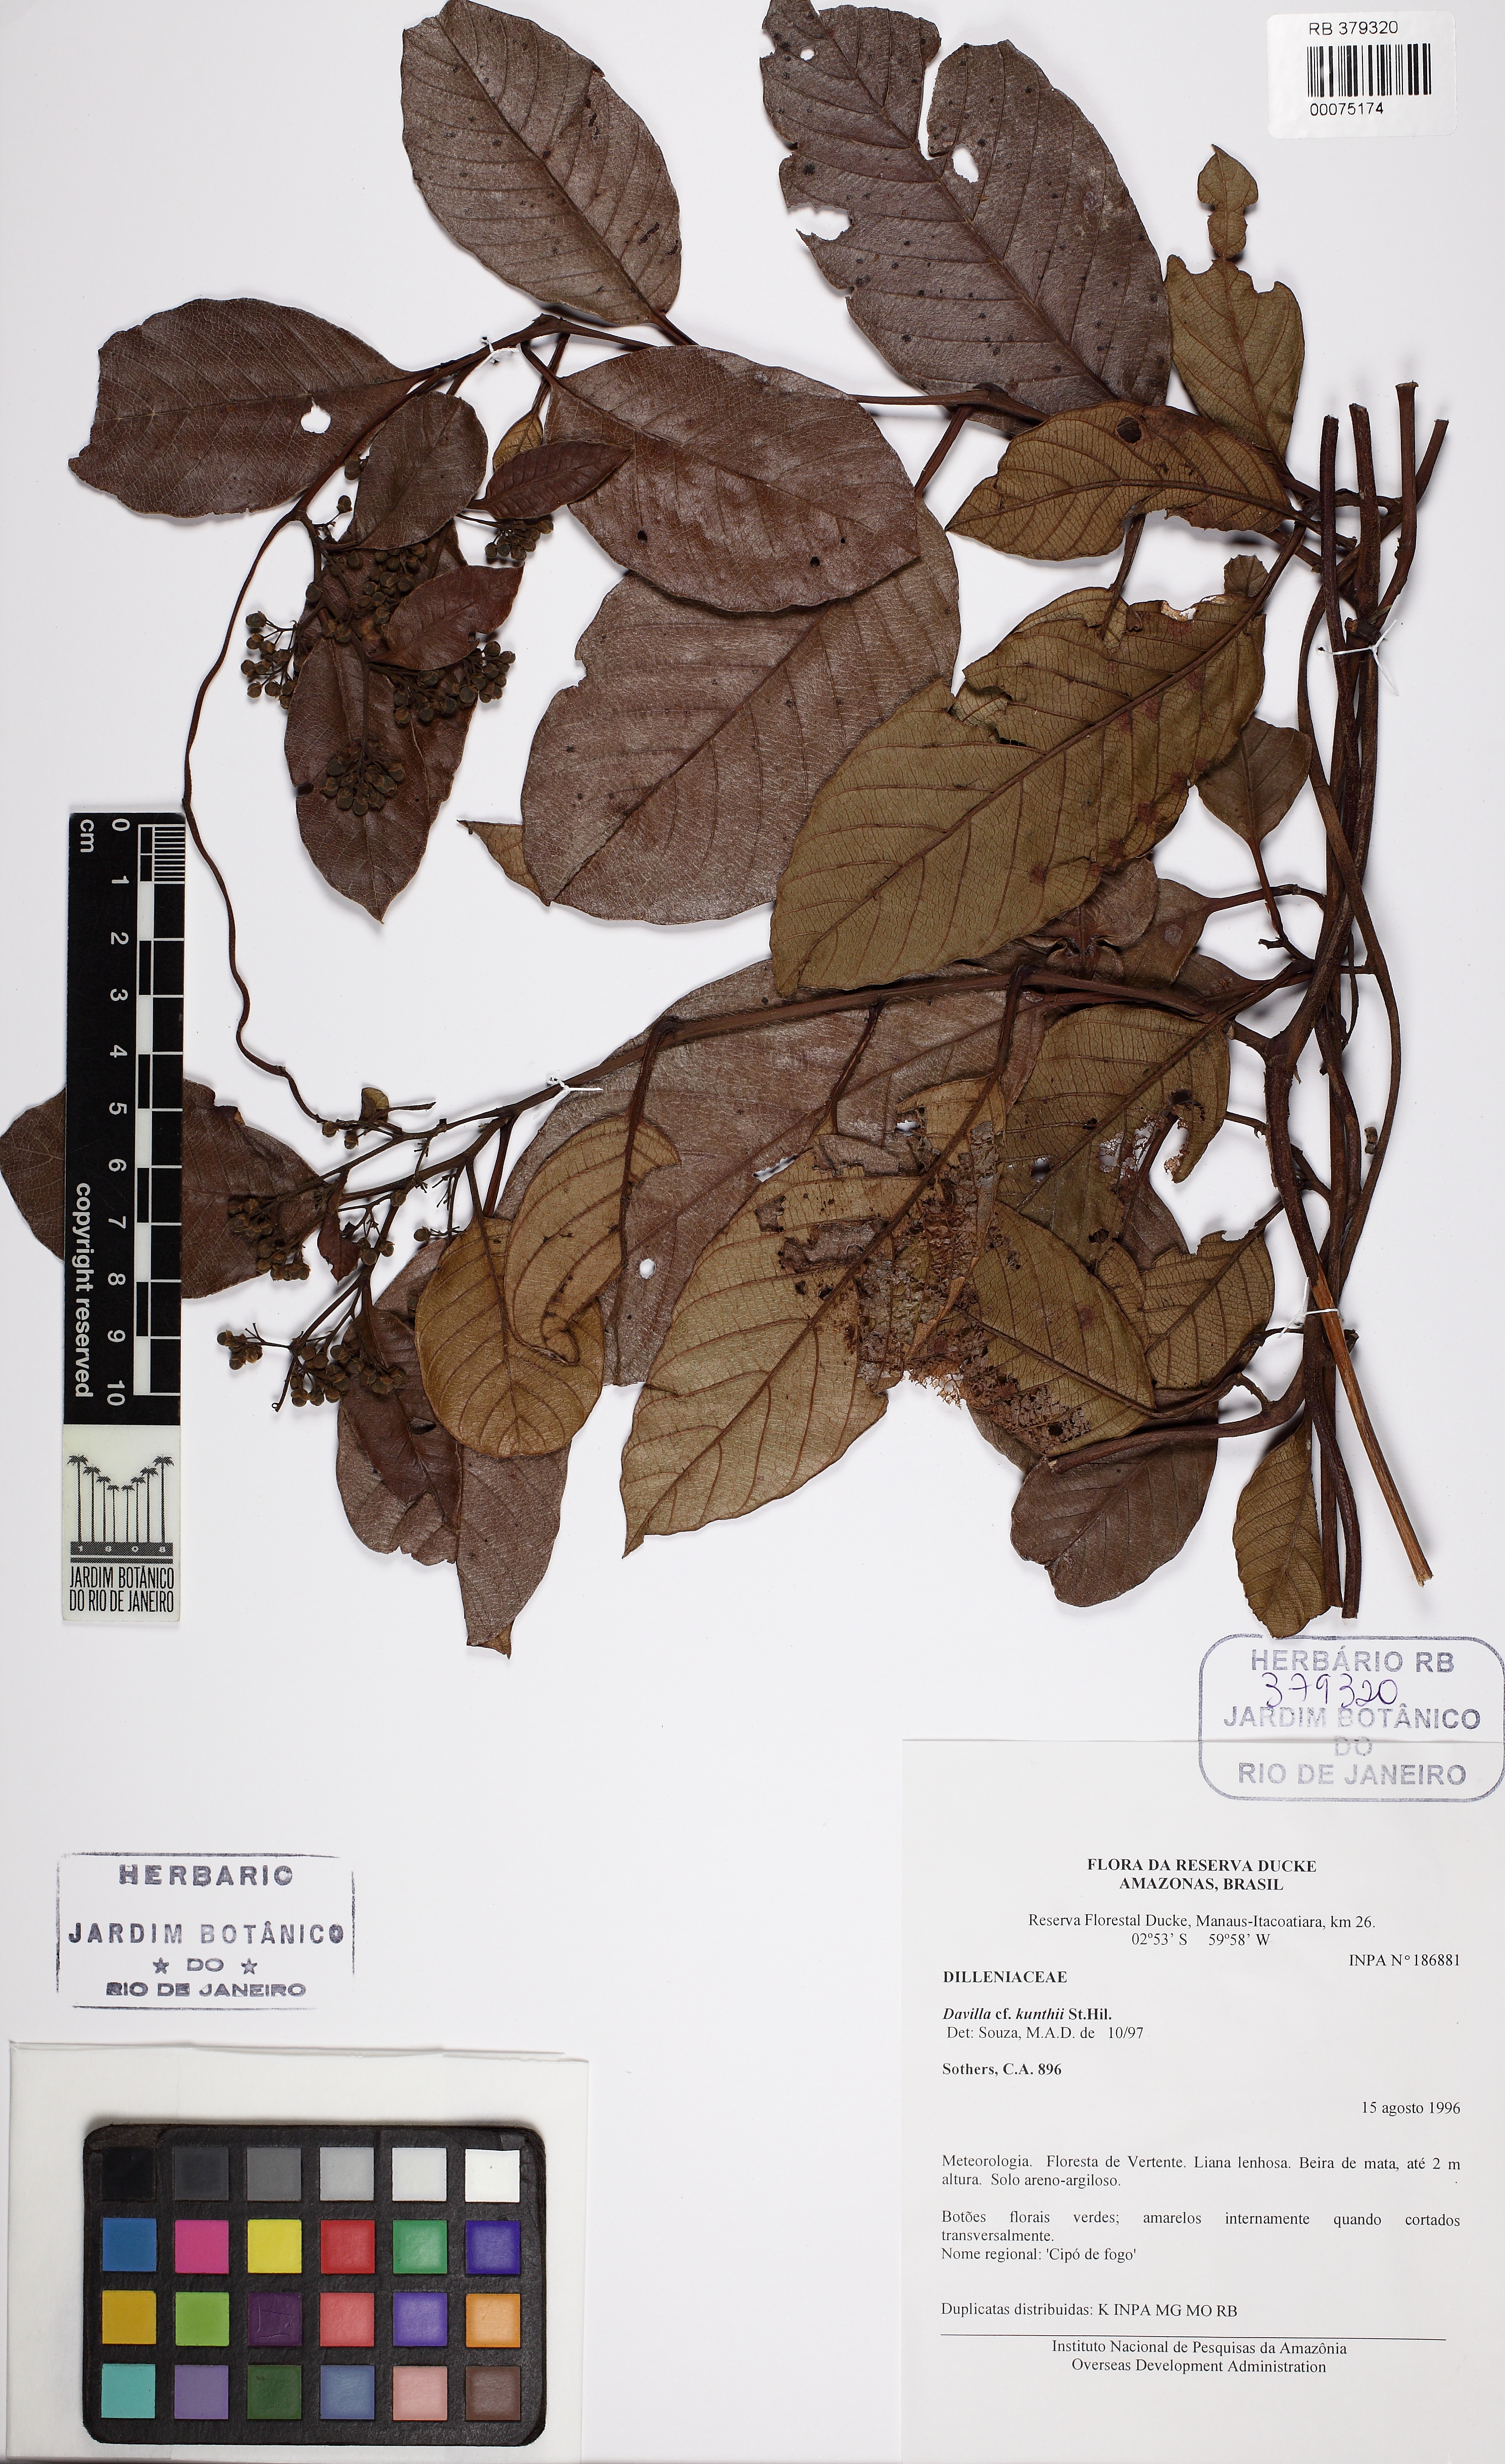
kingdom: Plantae
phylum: Tracheophyta
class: Magnoliopsida
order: Dilleniales
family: Dilleniaceae
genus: Davilla
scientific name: Davilla kunthii
